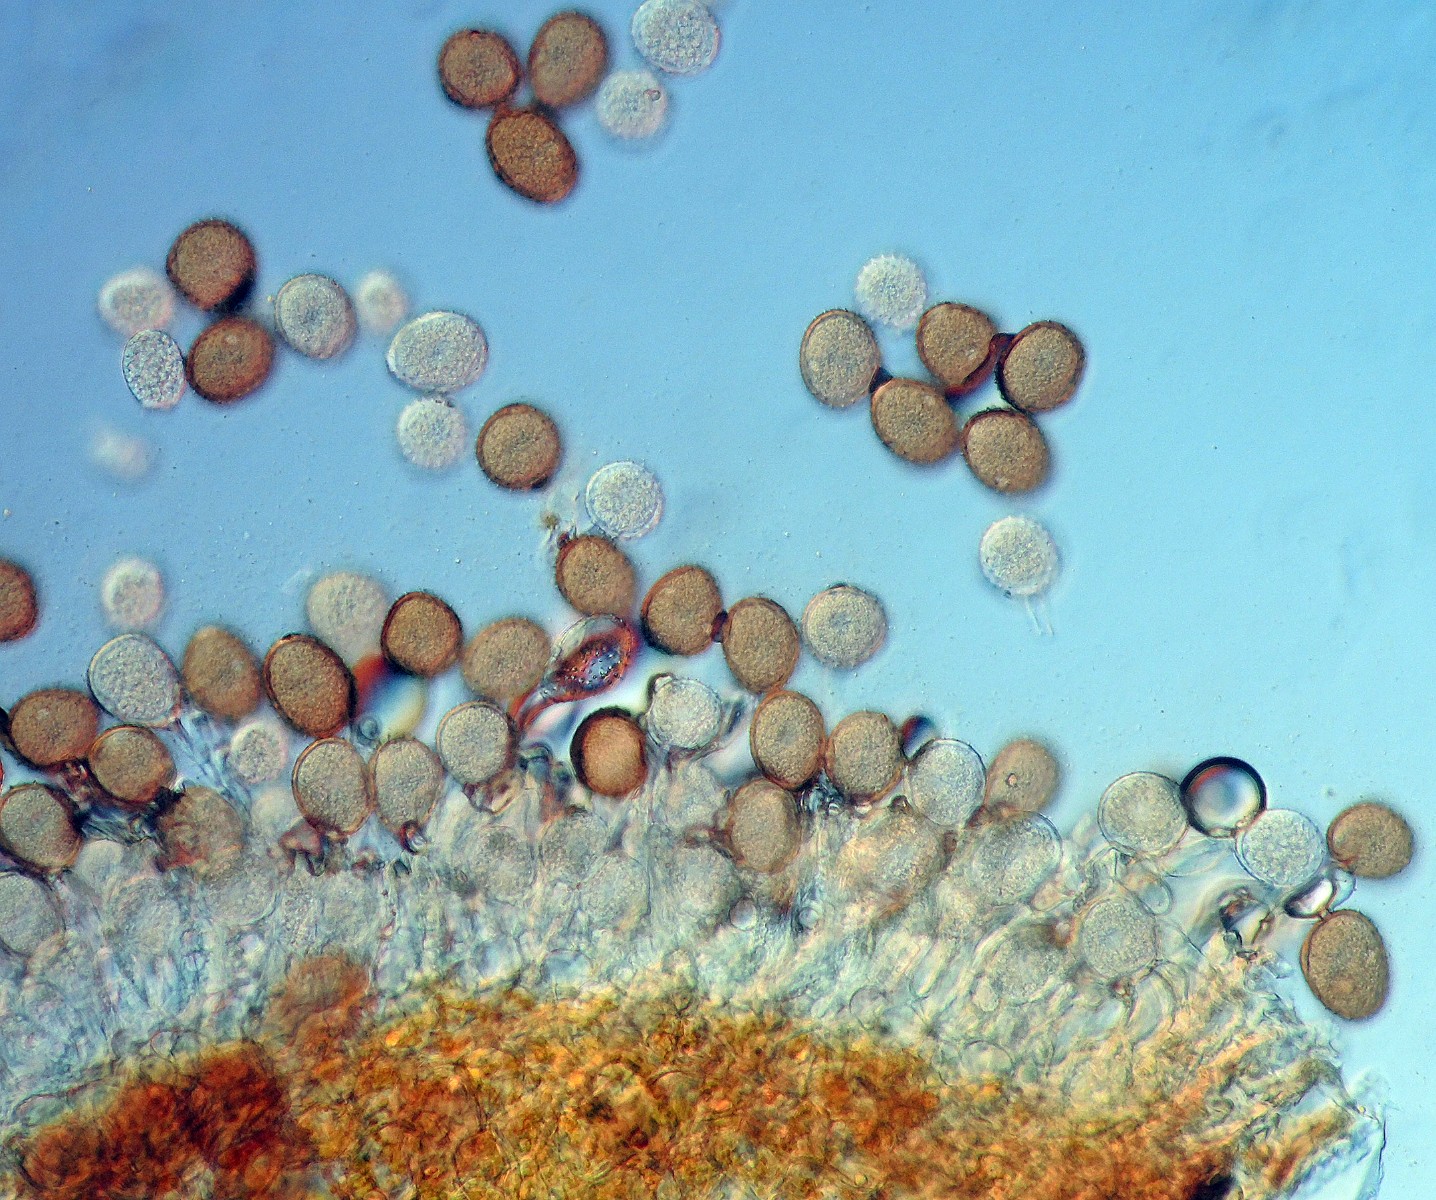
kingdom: Fungi
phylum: Basidiomycota
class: Pucciniomycetes
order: Pucciniales
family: Pucciniaceae
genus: Puccinia
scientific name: Puccinia caricina
